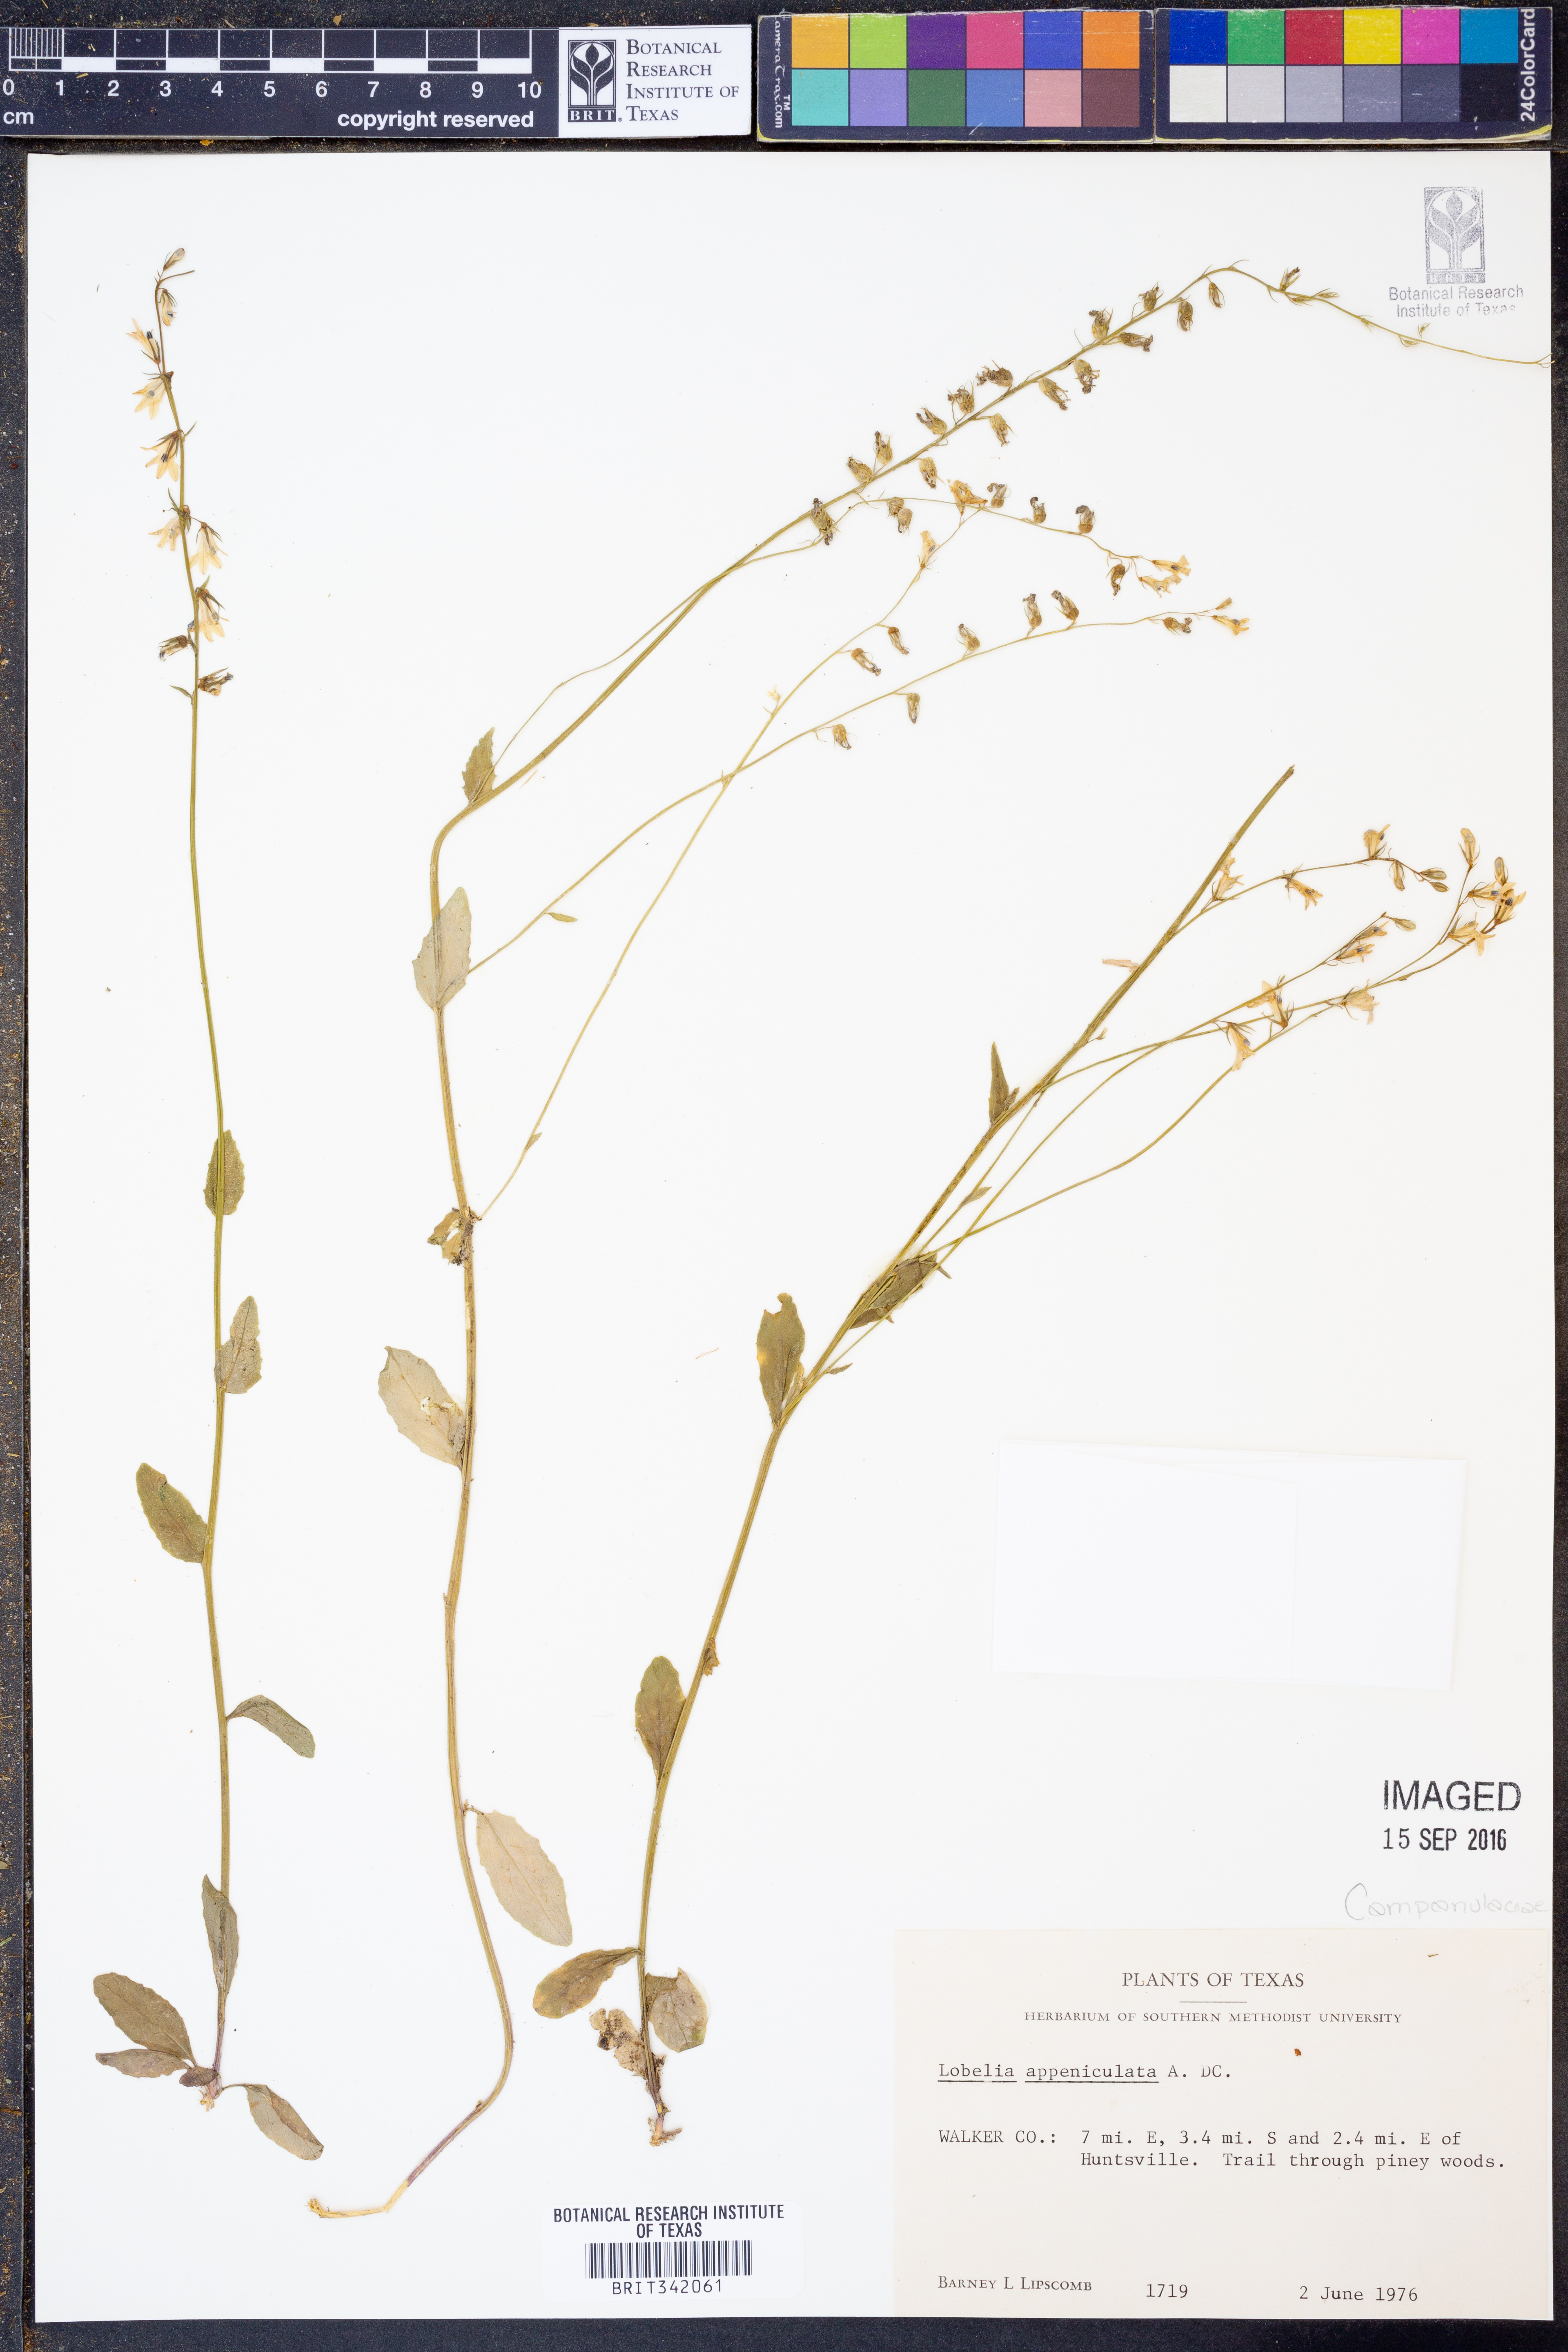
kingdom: Plantae
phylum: Tracheophyta
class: Magnoliopsida
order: Asterales
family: Campanulaceae
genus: Lobelia
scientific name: Lobelia appendiculata
